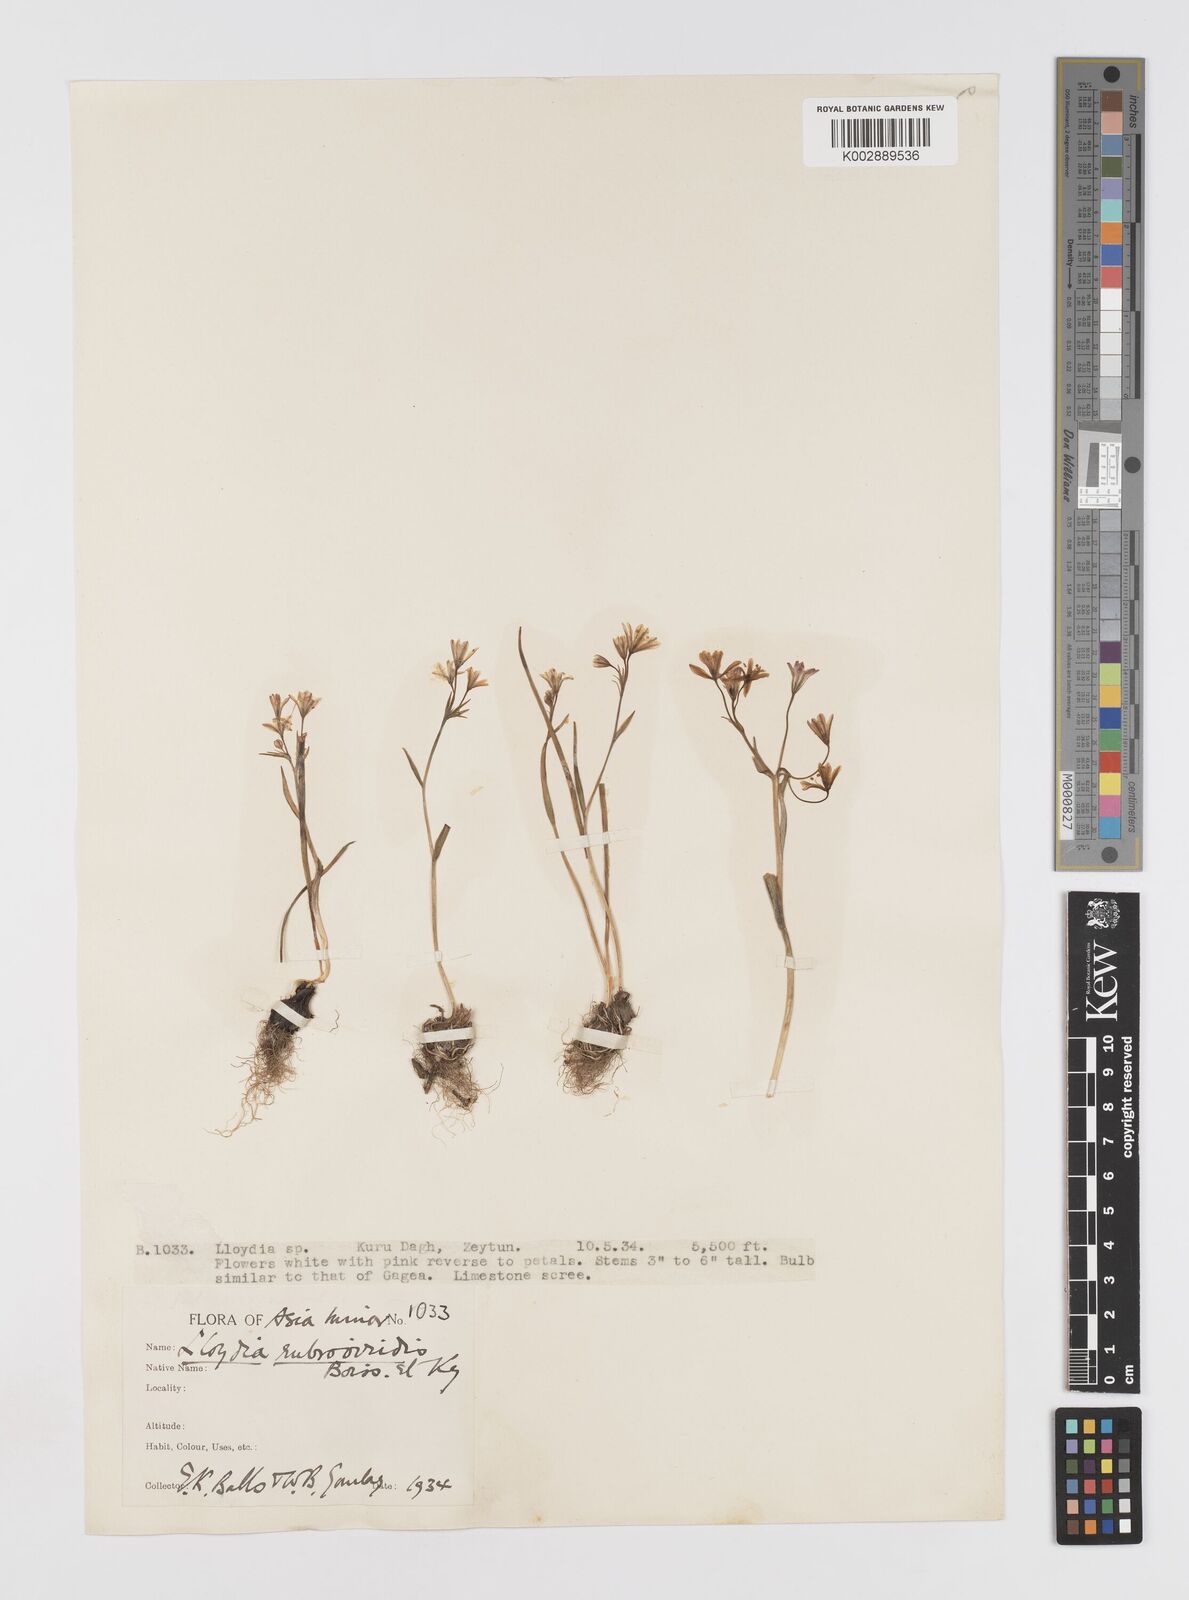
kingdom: Plantae
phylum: Tracheophyta
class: Liliopsida
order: Liliales
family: Liliaceae
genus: Gagea
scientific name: Gagea libanotica
